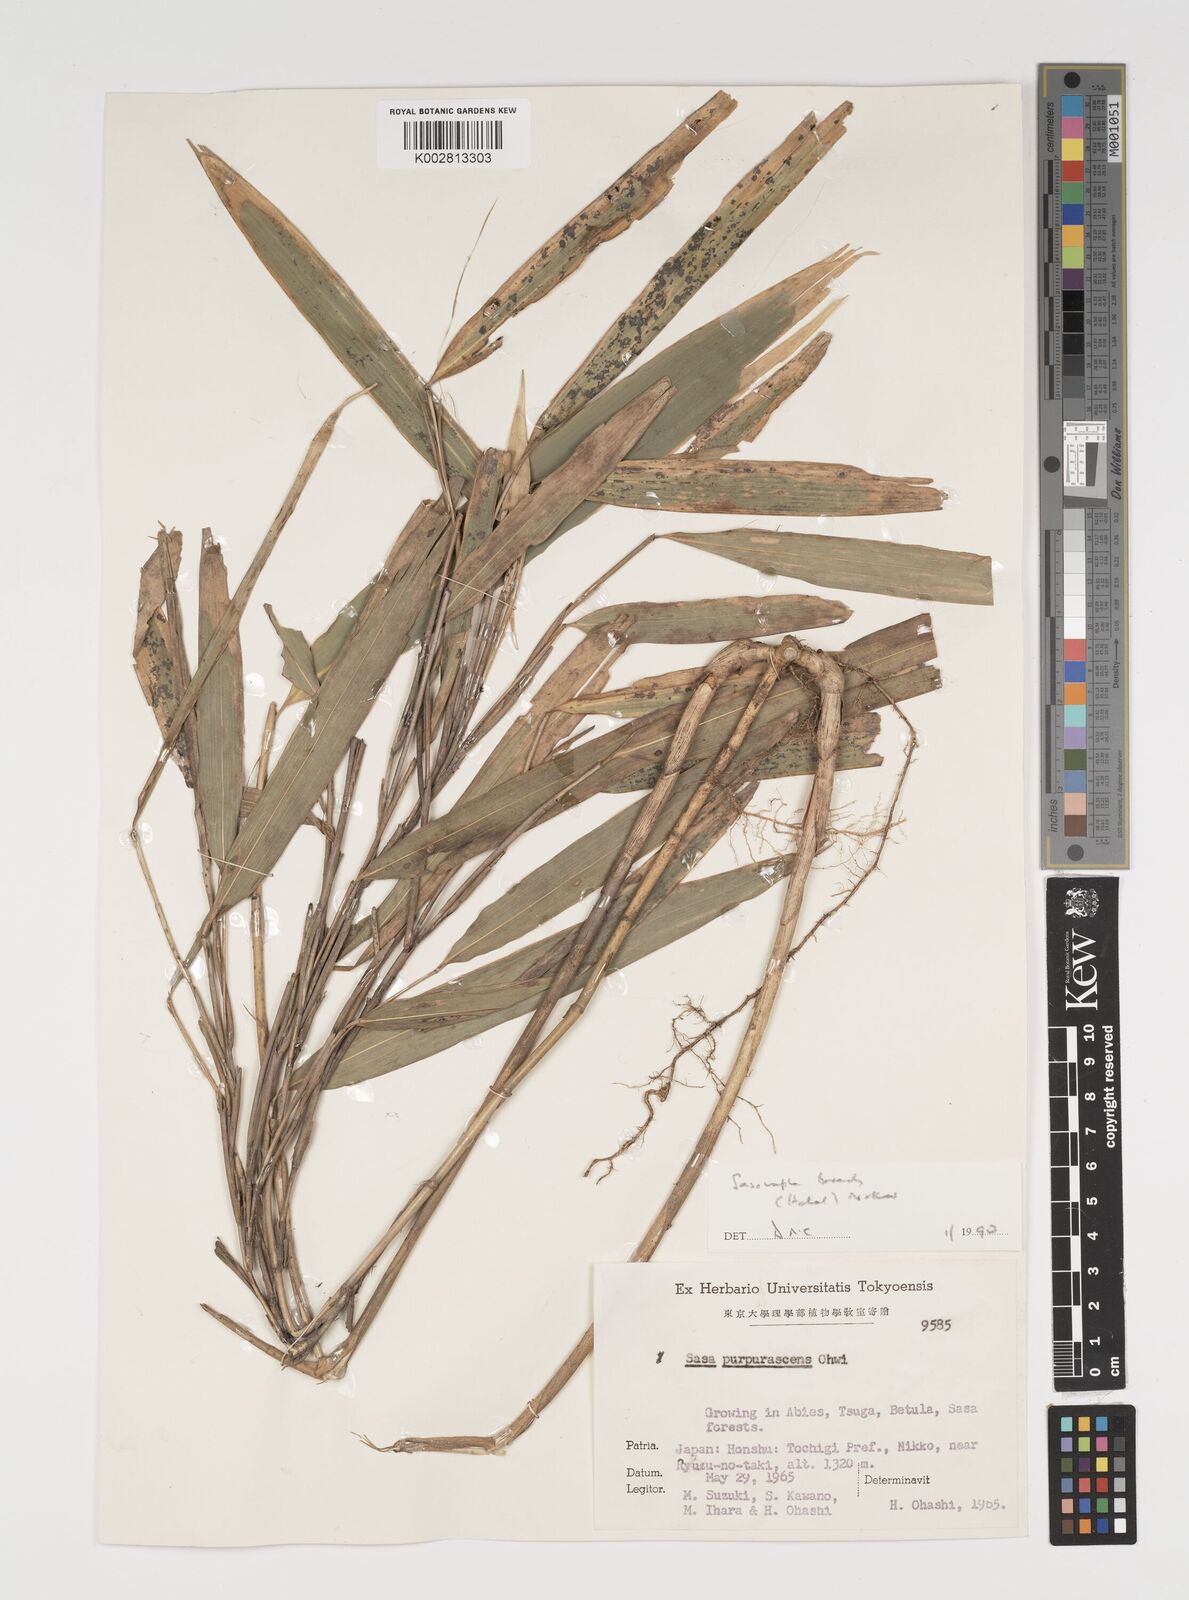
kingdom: Plantae
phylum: Tracheophyta
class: Liliopsida
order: Poales
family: Poaceae
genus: Sasamorpha
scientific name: Sasamorpha borealis
